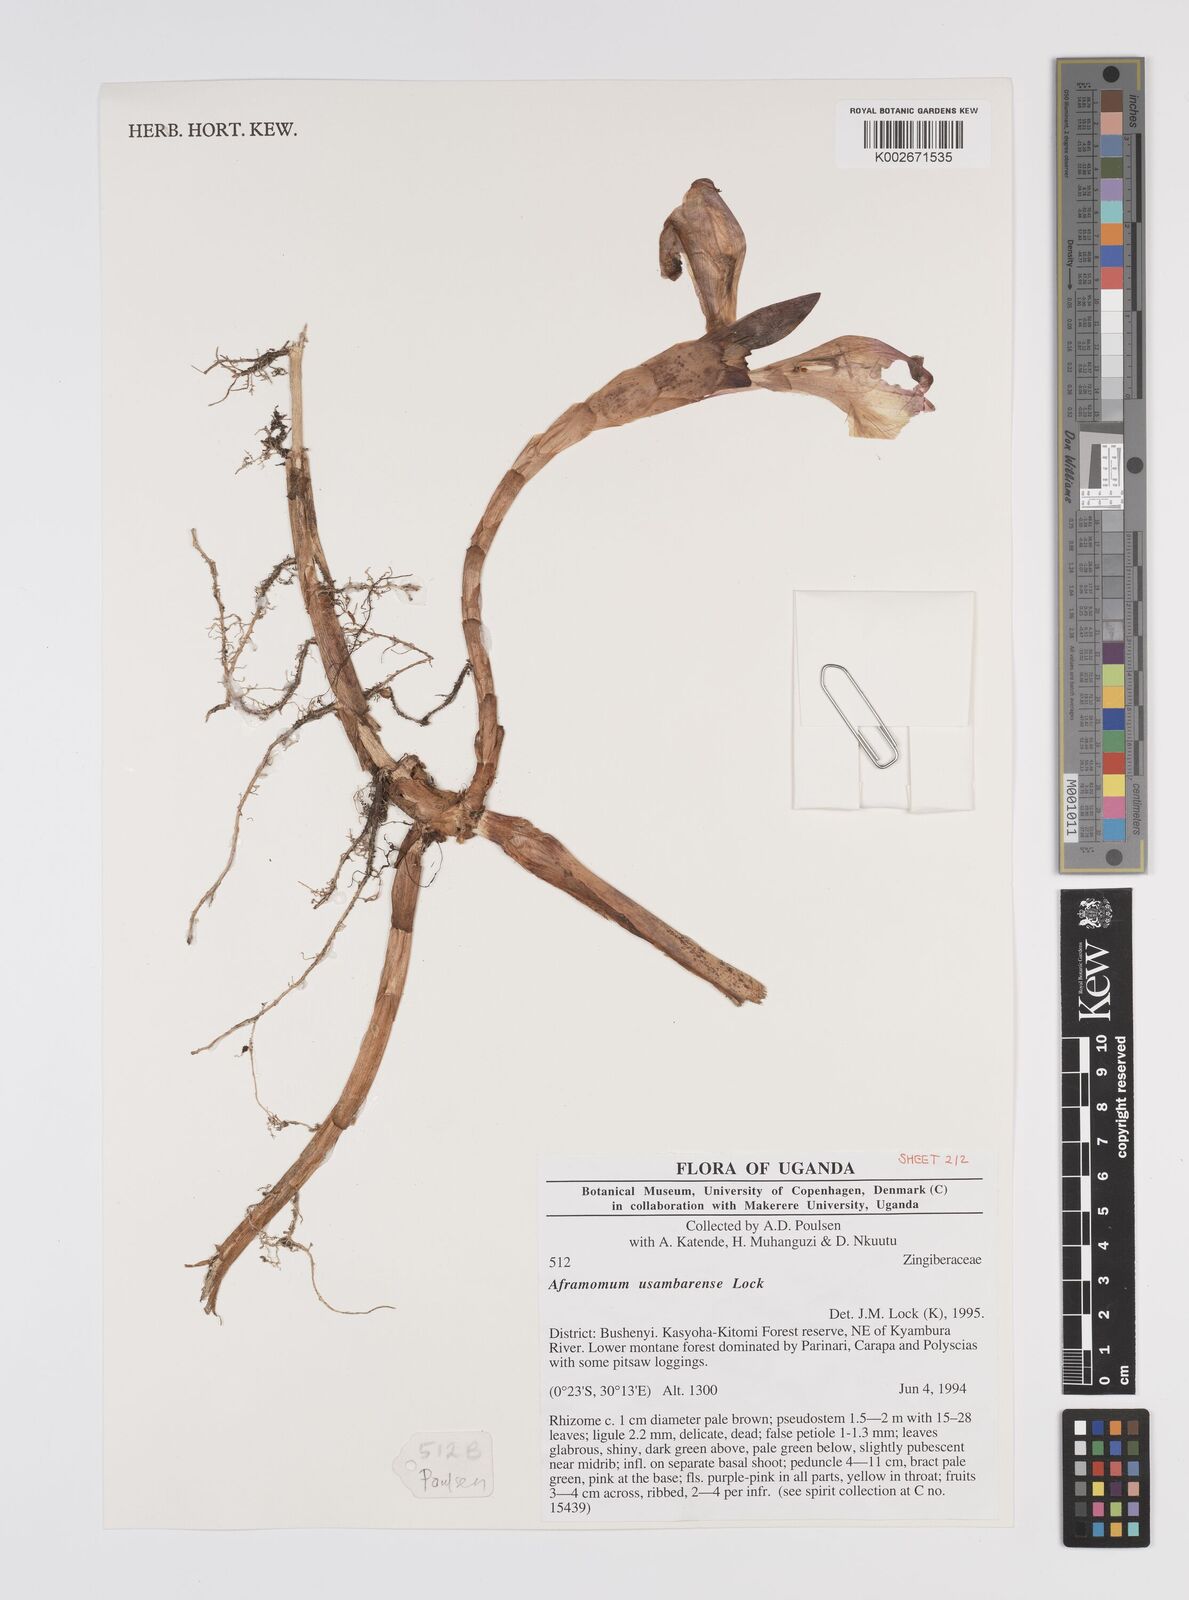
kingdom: Plantae
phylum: Tracheophyta
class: Liliopsida
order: Zingiberales
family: Zingiberaceae
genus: Aframomum
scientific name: Aframomum corrorima
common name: Ethiopian cardamom
